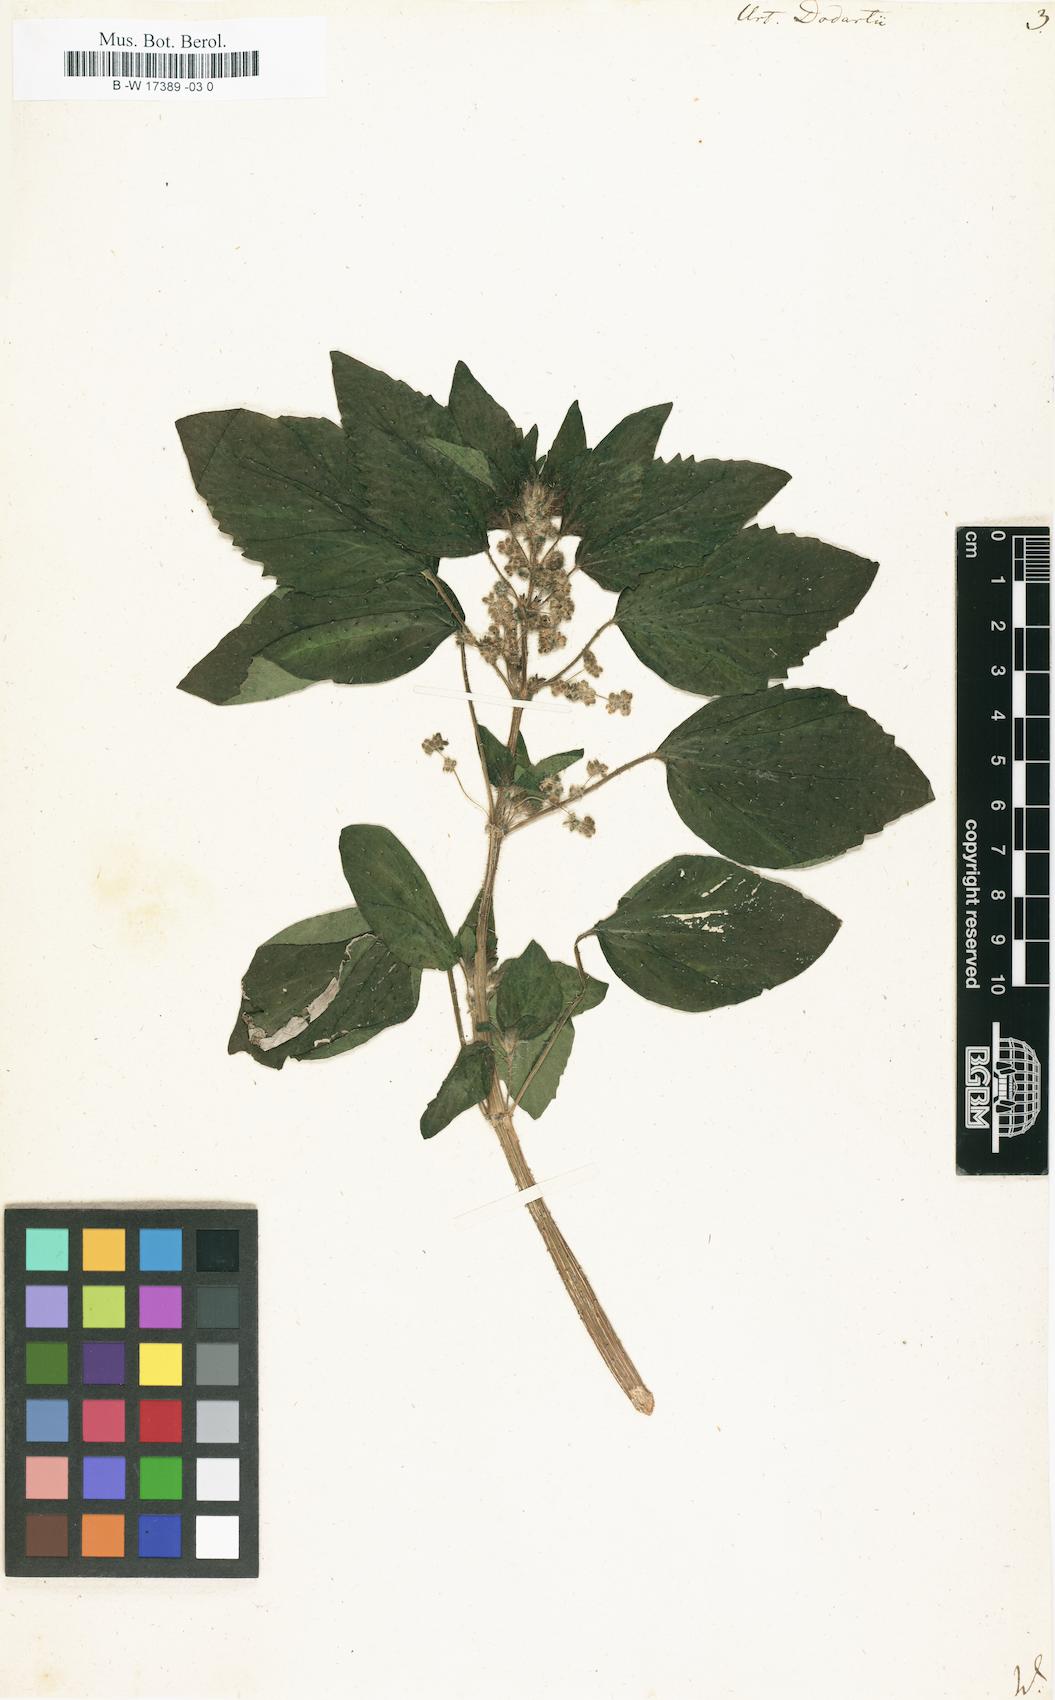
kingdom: Plantae
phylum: Tracheophyta
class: Magnoliopsida
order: Rosales
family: Urticaceae
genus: Urtica
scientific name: Urtica pilulifera
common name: Roman nettle
